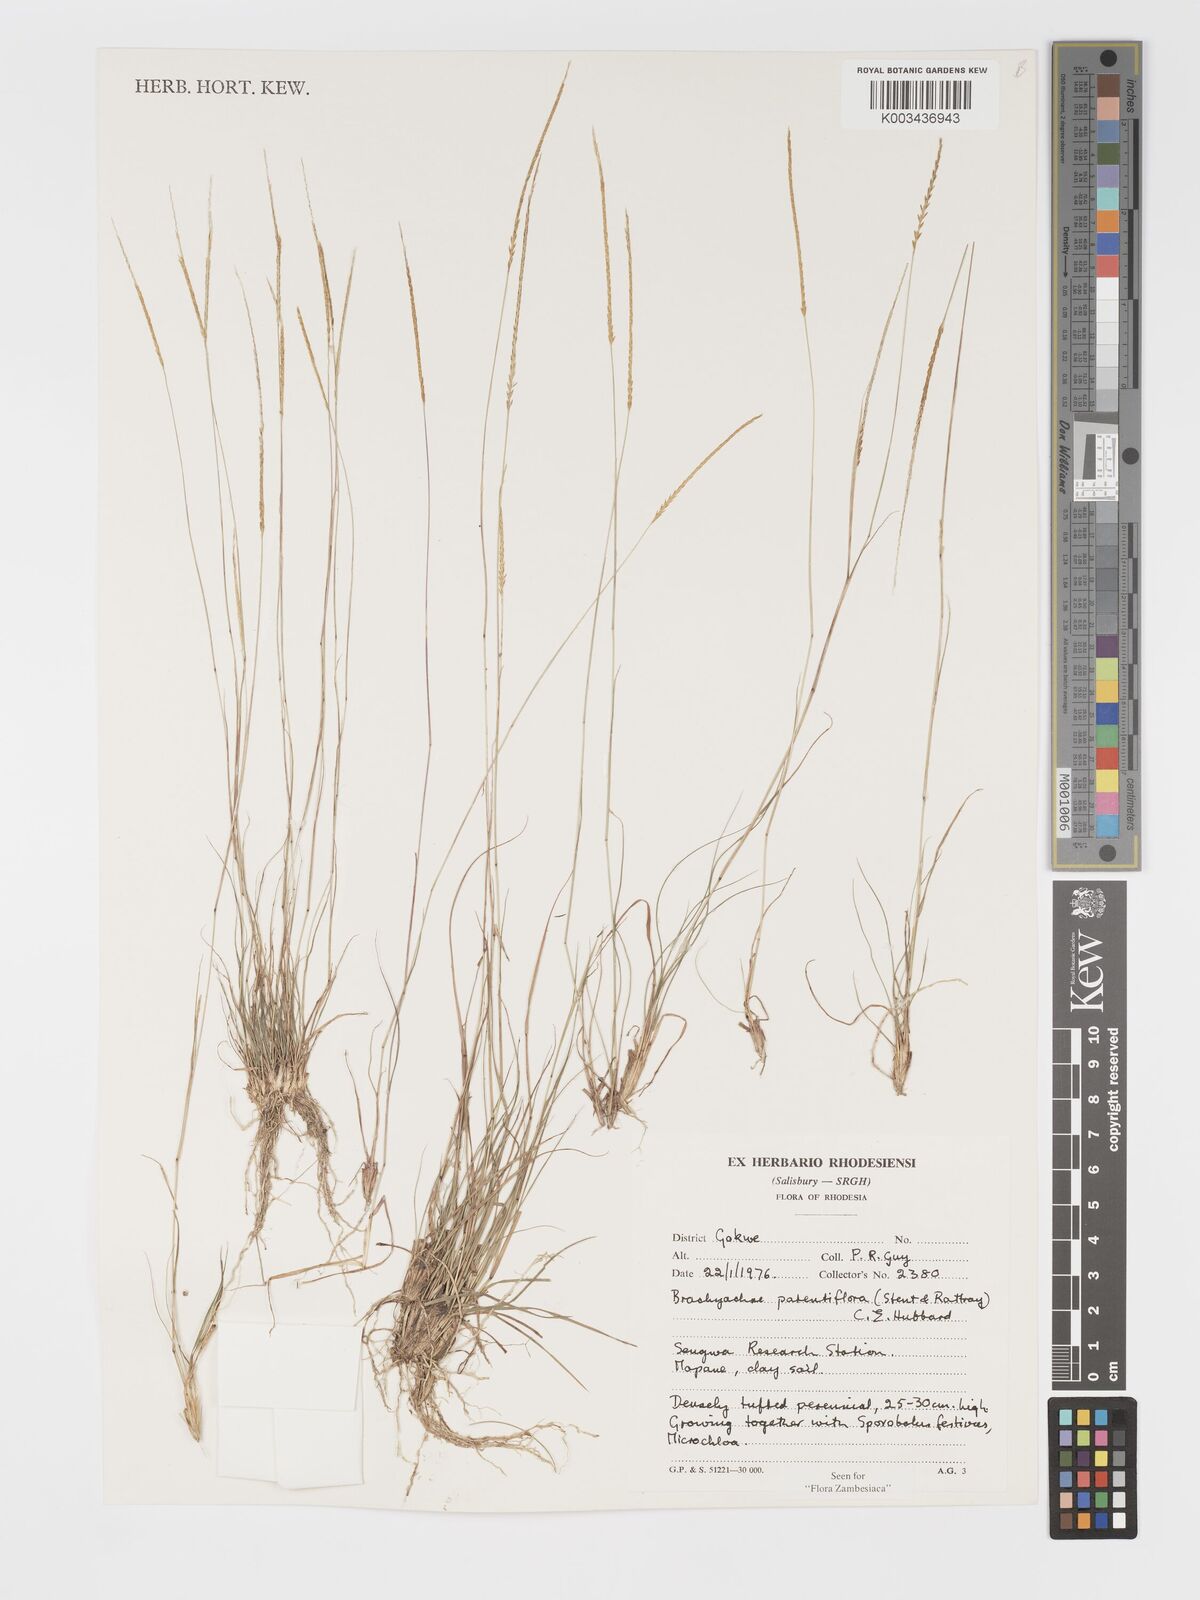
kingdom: Plantae
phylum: Tracheophyta
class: Liliopsida
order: Poales
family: Poaceae
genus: Micrachne
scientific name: Micrachne patentiflora
